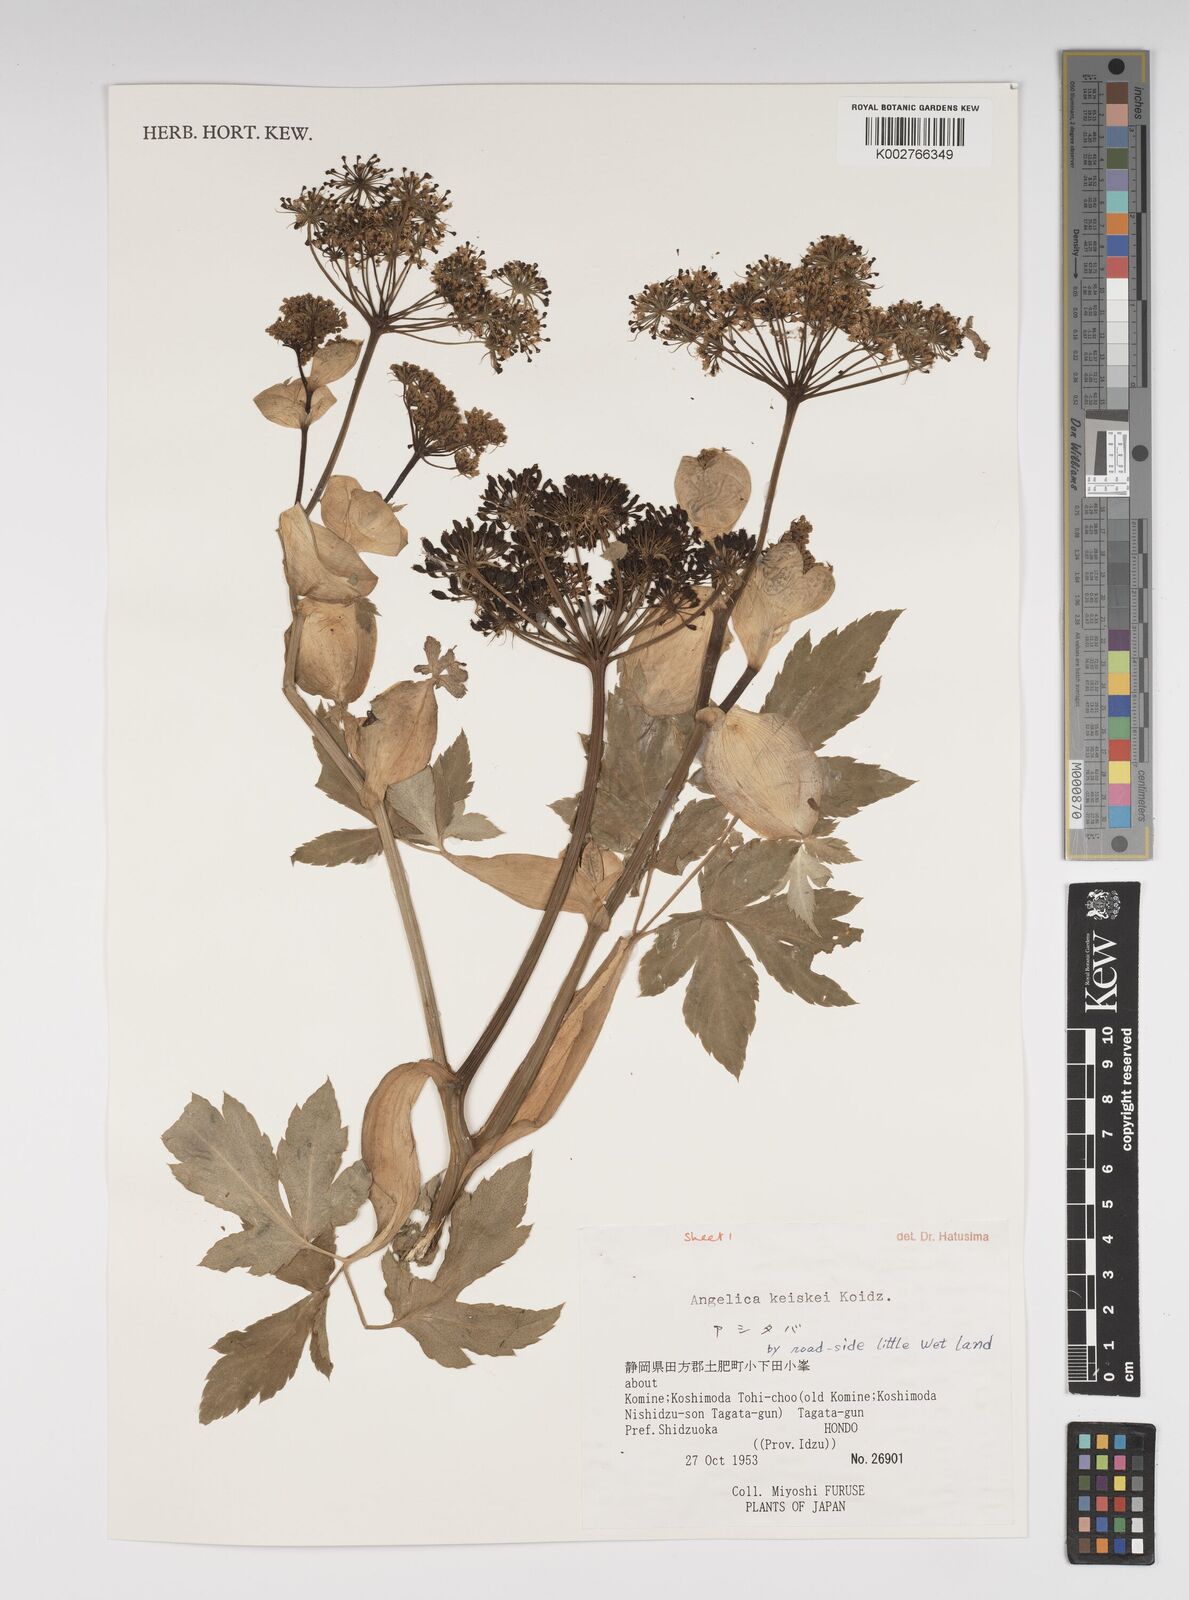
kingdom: Plantae
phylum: Tracheophyta
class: Magnoliopsida
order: Apiales
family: Apiaceae
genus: Angelica
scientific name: Angelica keiskei
